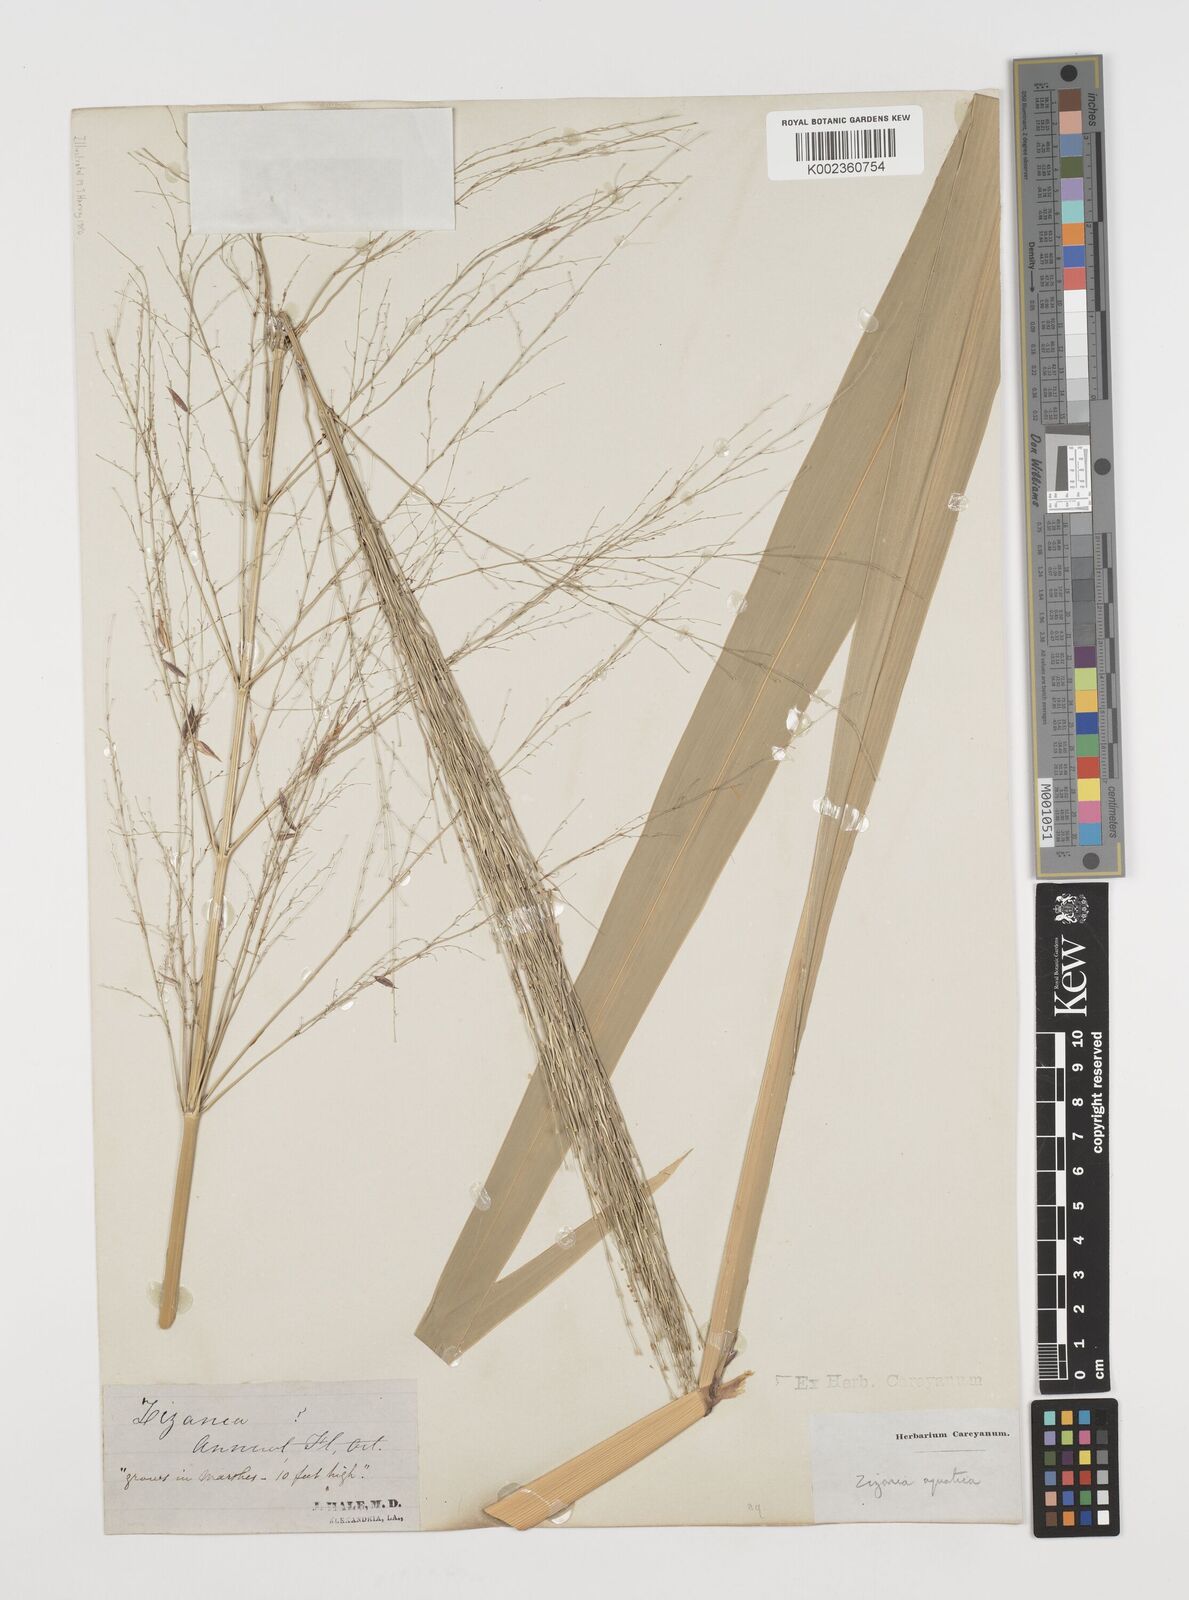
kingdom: Plantae
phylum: Tracheophyta
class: Liliopsida
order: Poales
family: Poaceae
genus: Zizania
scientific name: Zizania aquatica
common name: Annual wildrice
